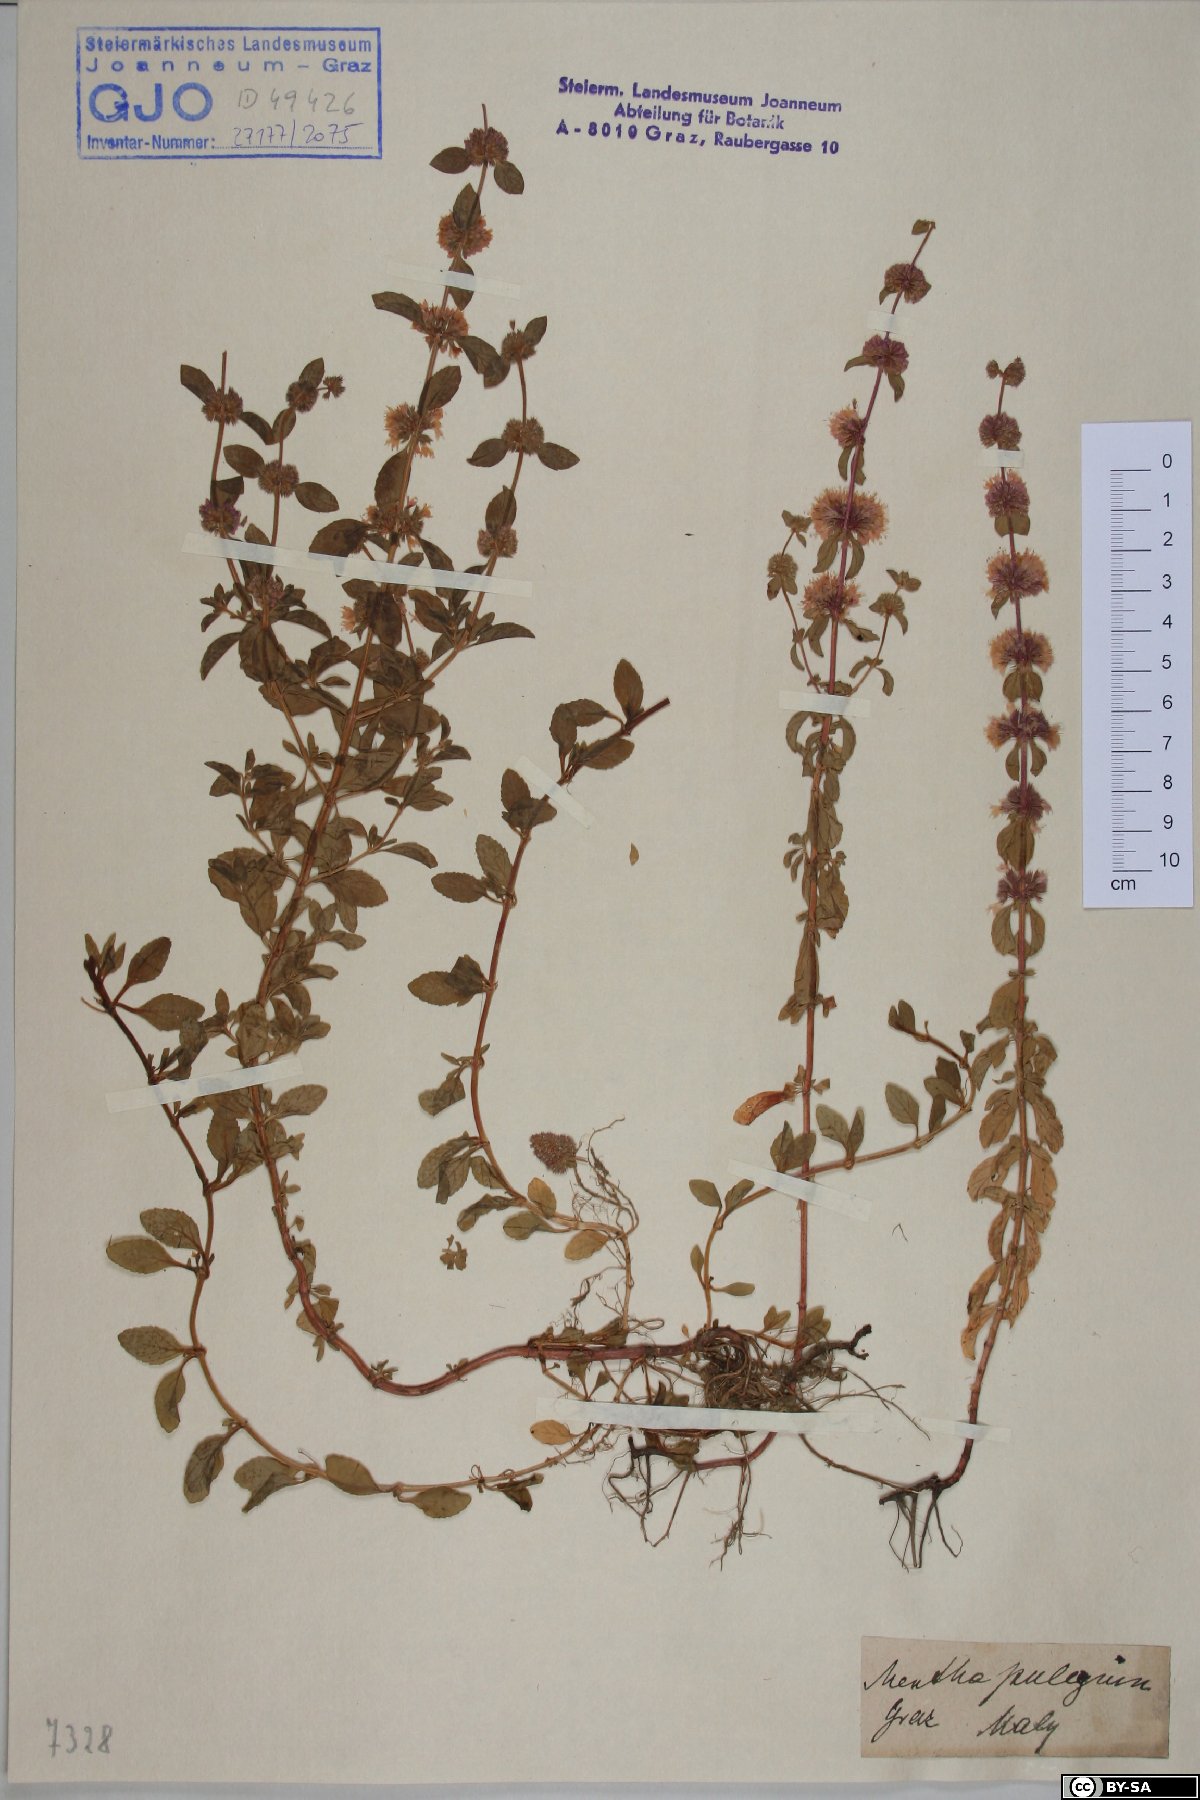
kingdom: Plantae
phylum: Tracheophyta
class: Magnoliopsida
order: Lamiales
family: Lamiaceae
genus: Mentha
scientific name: Mentha pulegium
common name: Pennyroyal
